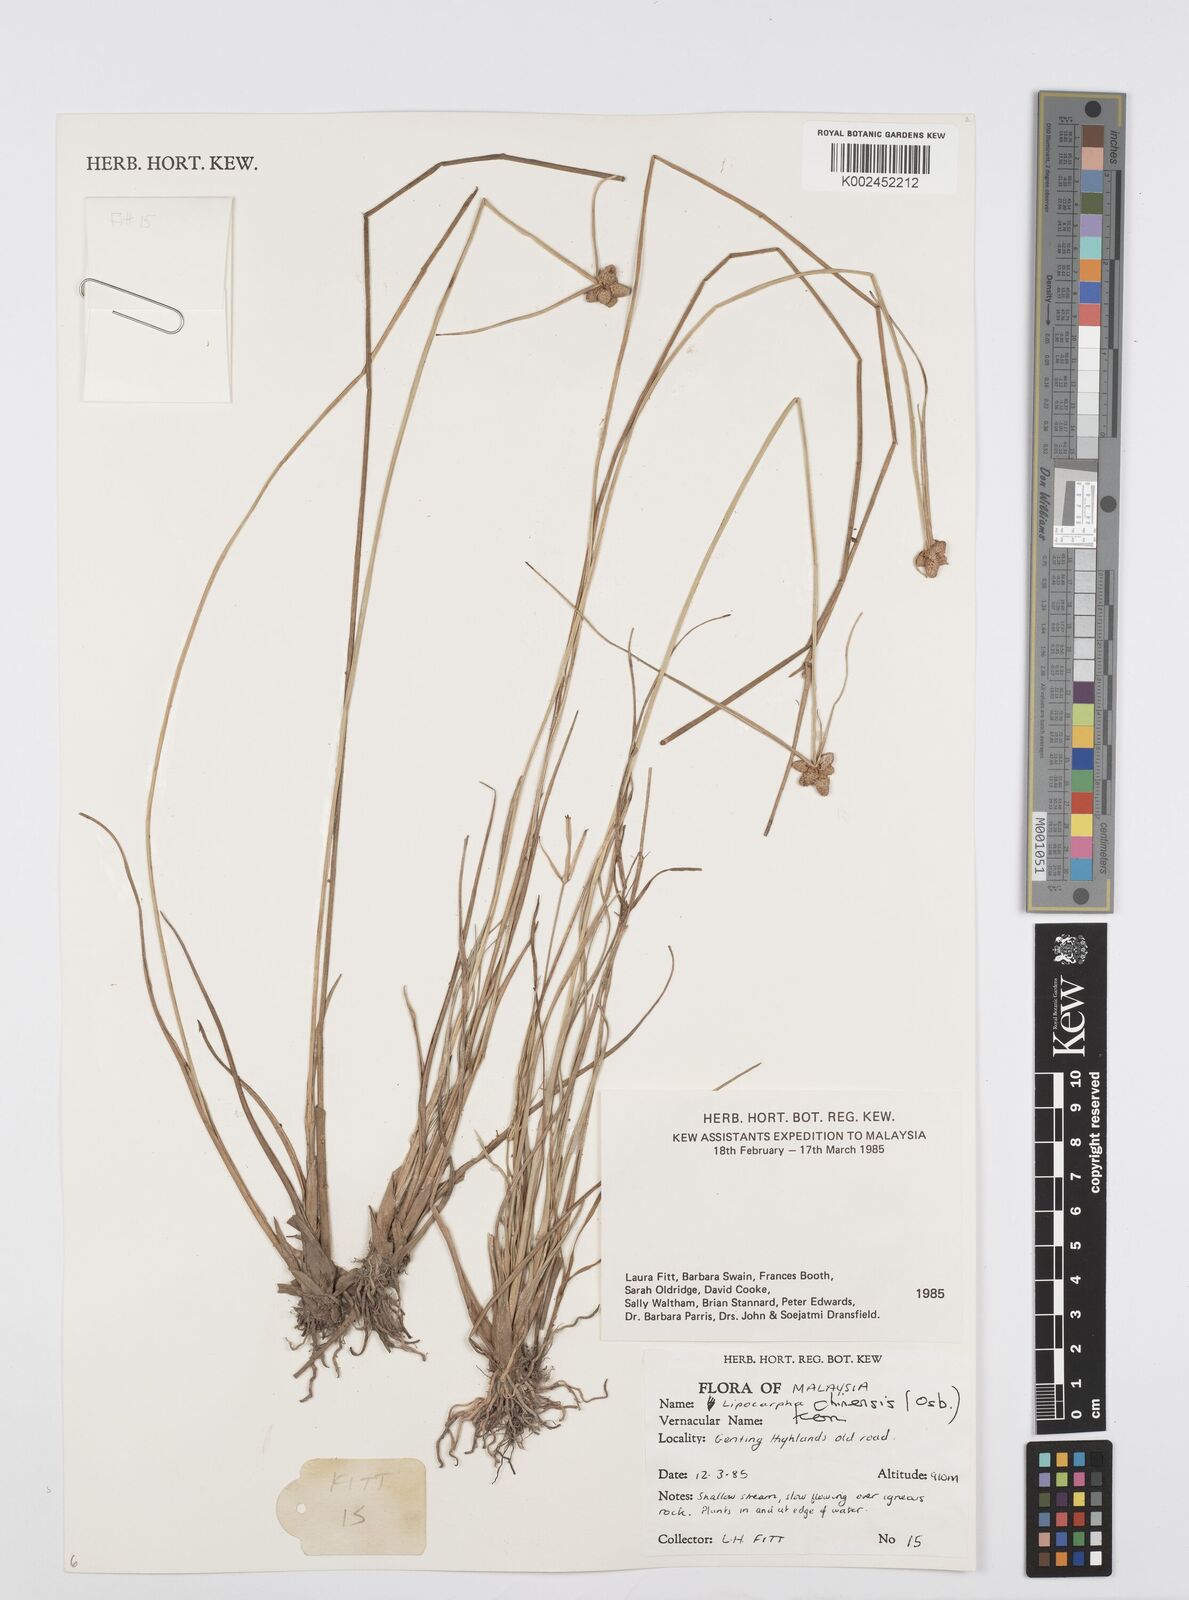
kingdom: Plantae
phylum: Tracheophyta
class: Liliopsida
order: Poales
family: Cyperaceae
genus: Cyperus
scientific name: Cyperus
